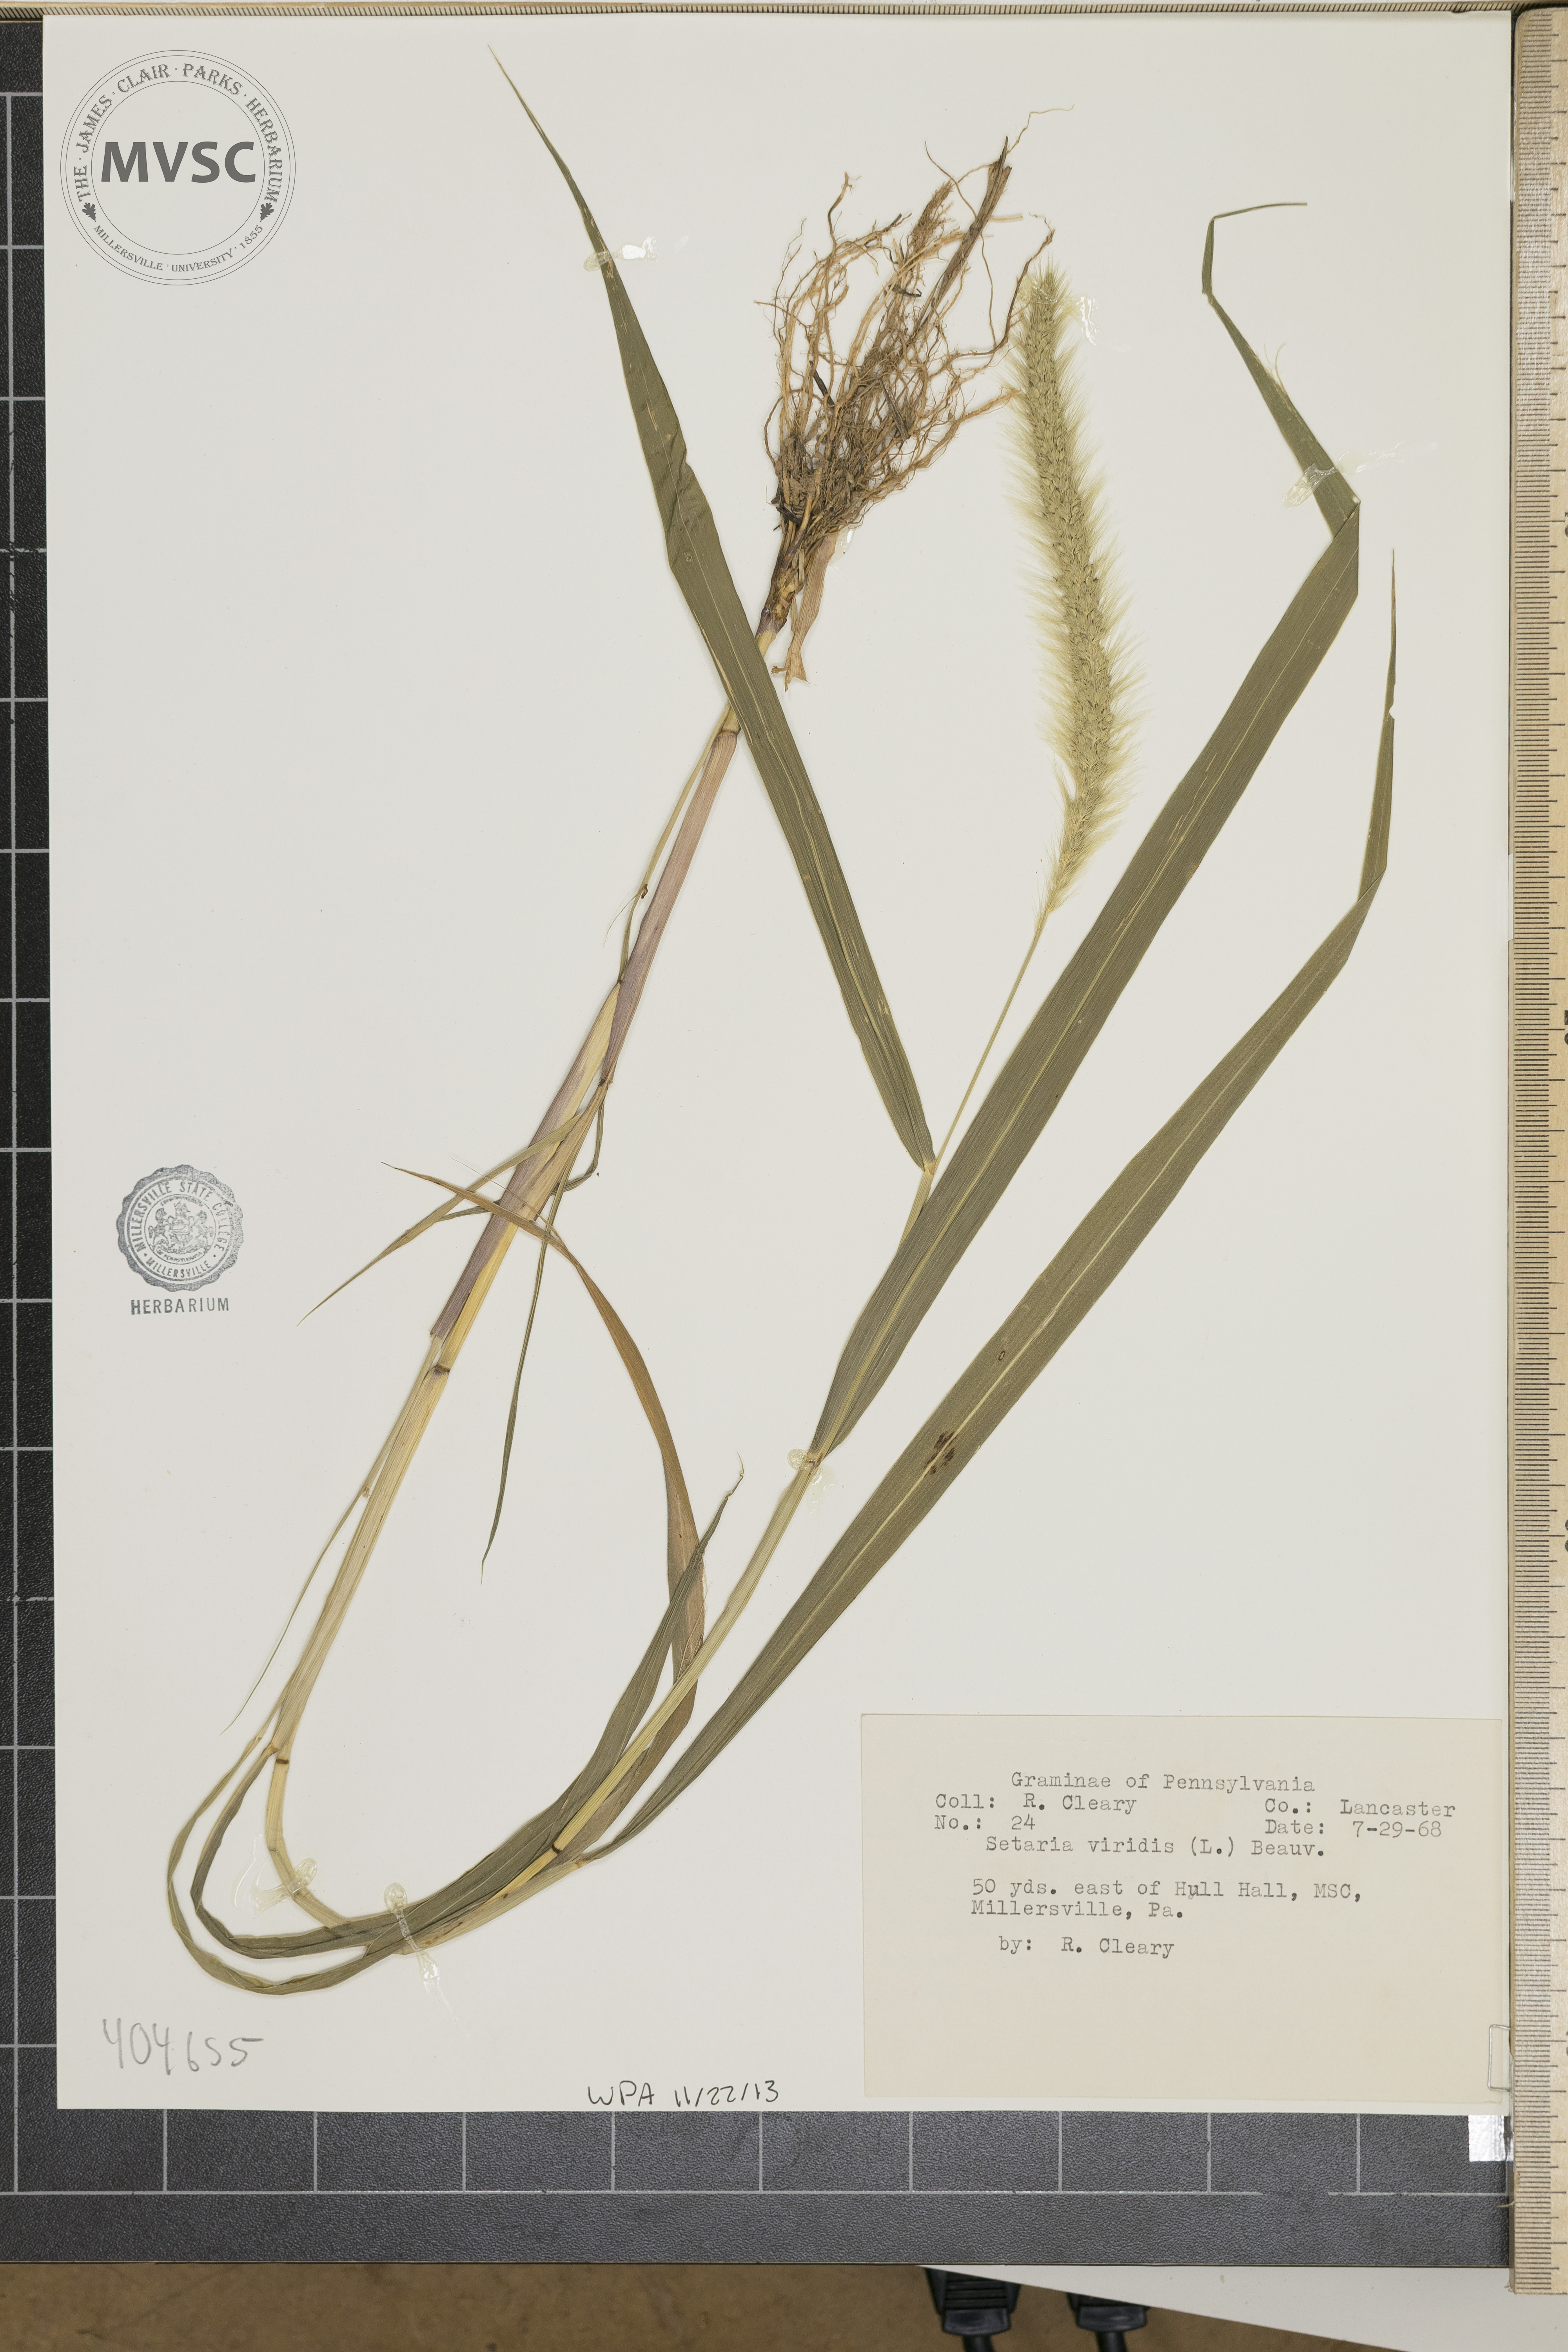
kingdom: Plantae
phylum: Tracheophyta
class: Liliopsida
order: Poales
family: Poaceae
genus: Setaria
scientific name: Setaria viridis
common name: Green bristlegrass
